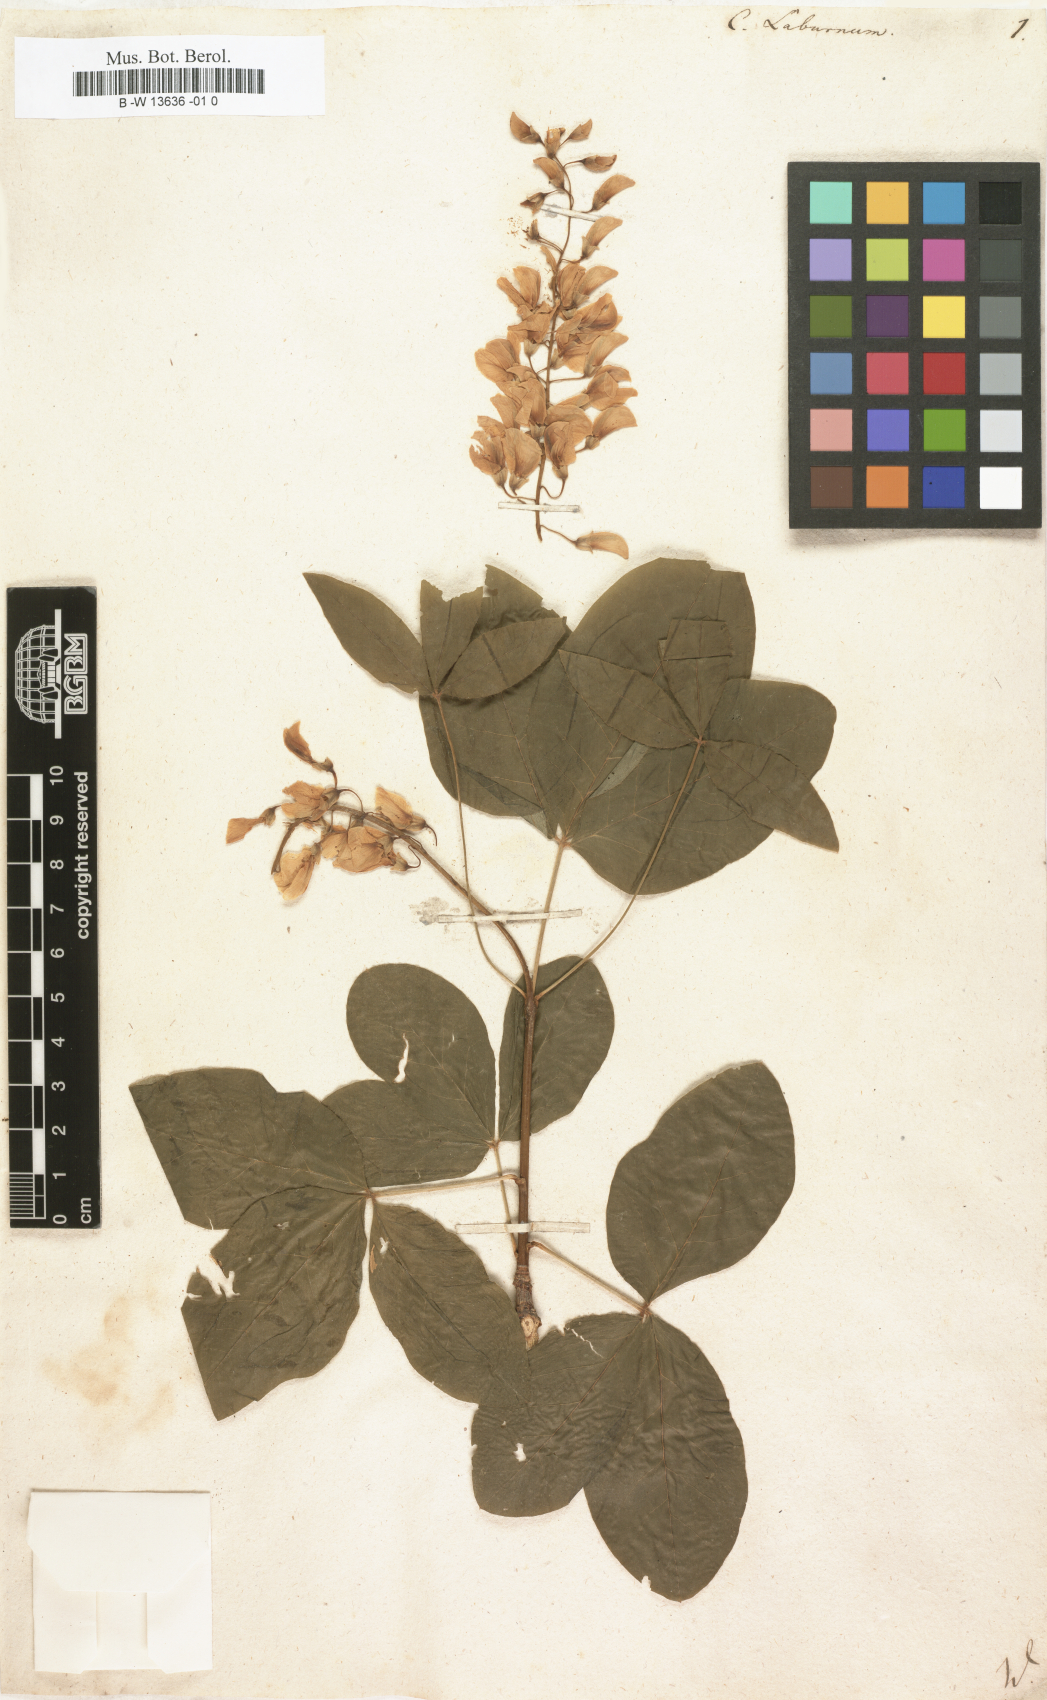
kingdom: Plantae
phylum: Tracheophyta
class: Magnoliopsida
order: Fabales
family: Fabaceae
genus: Laburnum
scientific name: Laburnum anagyroides
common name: Laburnum
